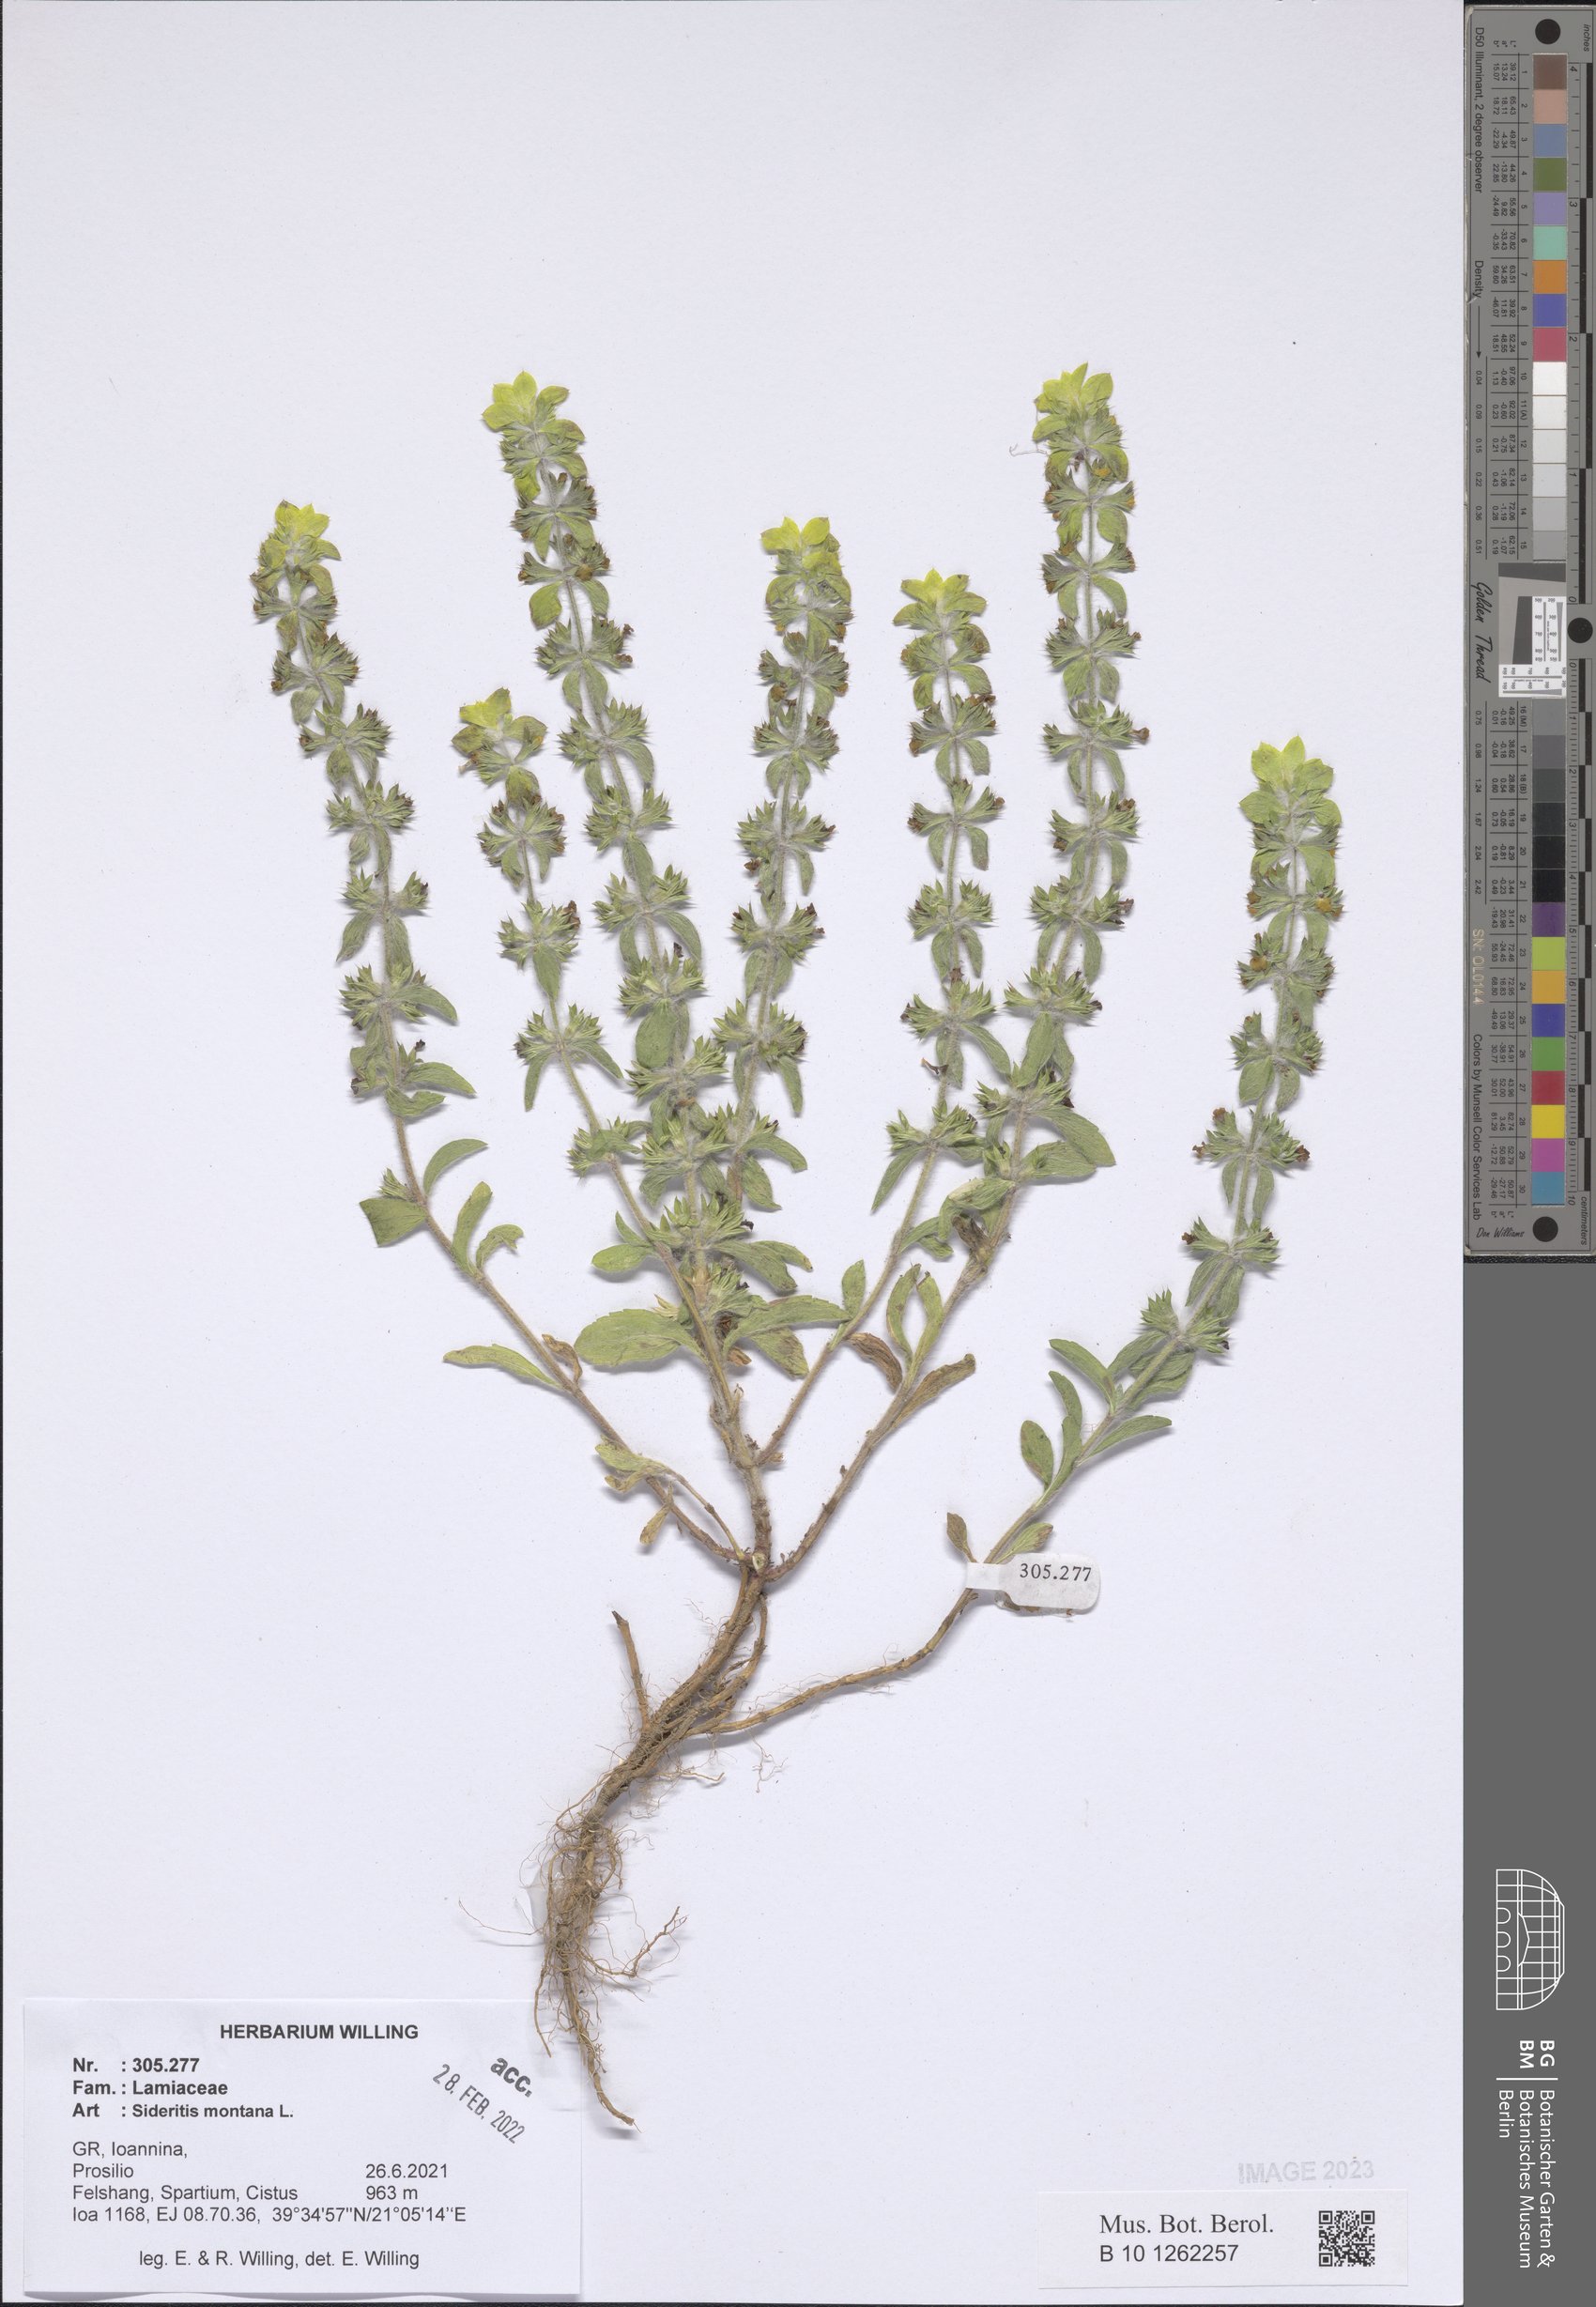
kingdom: Plantae
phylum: Tracheophyta
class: Magnoliopsida
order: Lamiales
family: Lamiaceae
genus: Sideritis
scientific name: Sideritis montana
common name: Mountain ironwort
